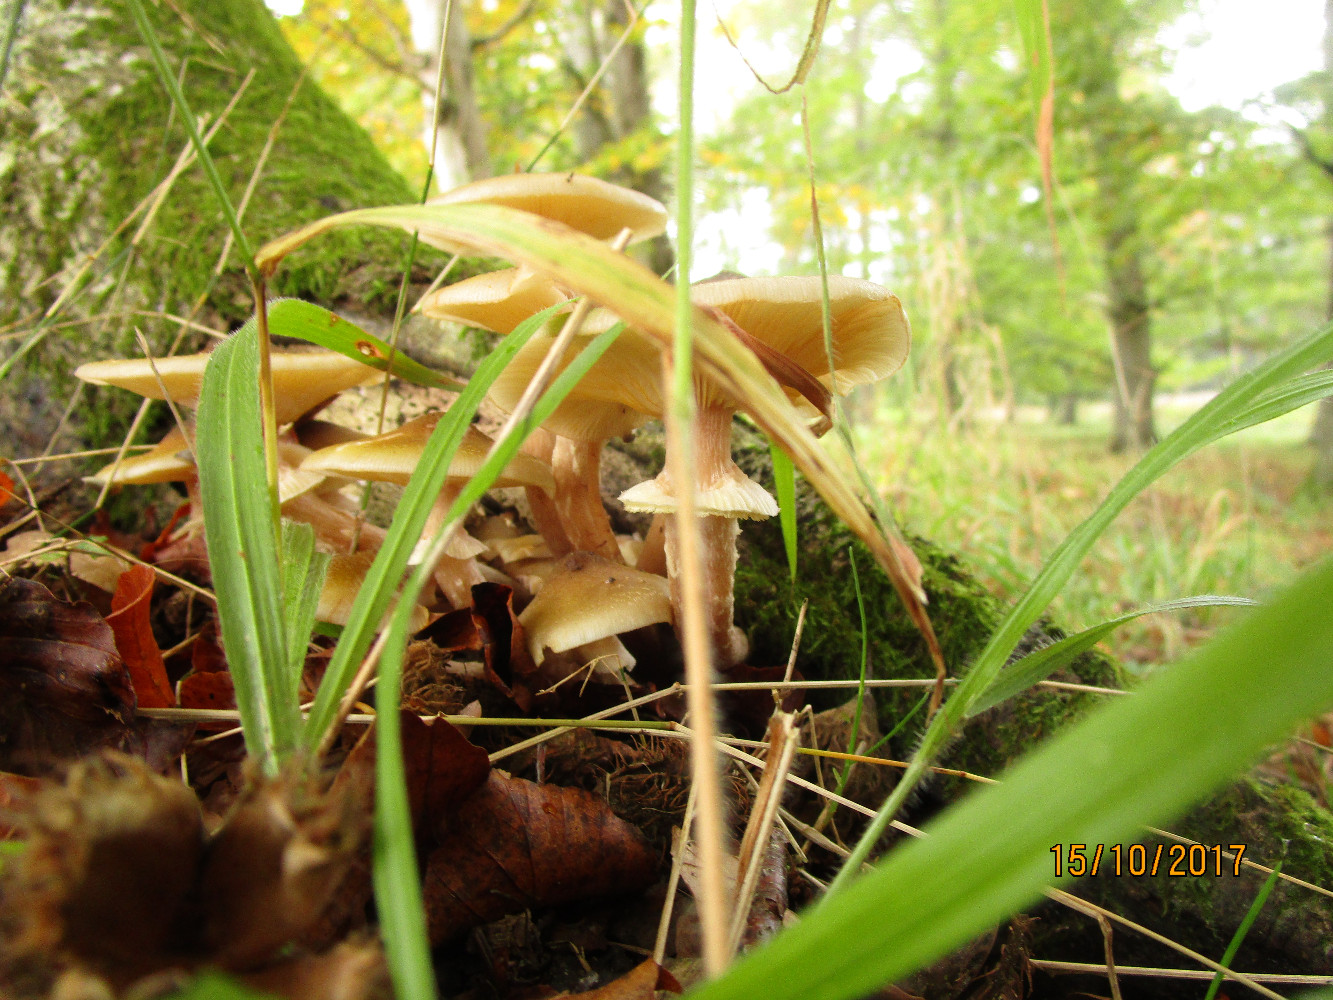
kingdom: Fungi
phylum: Basidiomycota
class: Agaricomycetes
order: Agaricales
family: Physalacriaceae
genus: Armillaria
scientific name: Armillaria mellea
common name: ægte honningsvamp
